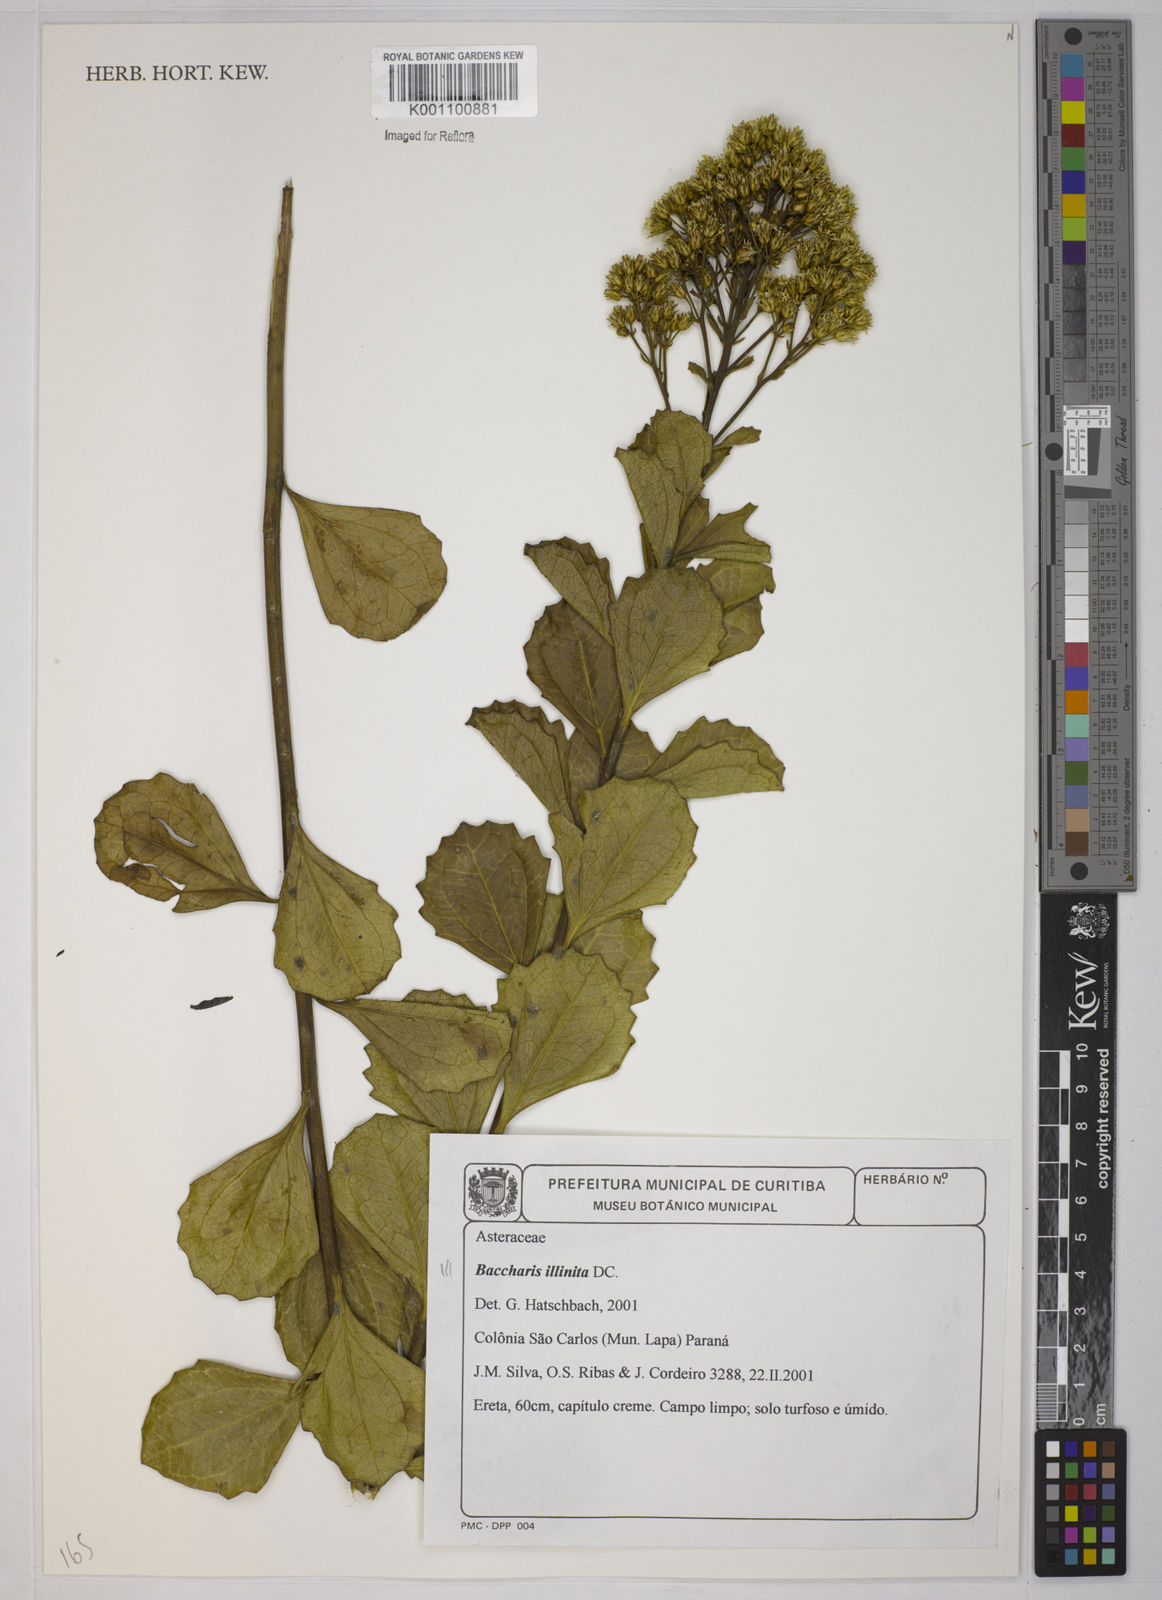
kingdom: Plantae
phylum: Tracheophyta
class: Magnoliopsida
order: Asterales
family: Asteraceae
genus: Baccharis
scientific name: Baccharis tridentata
